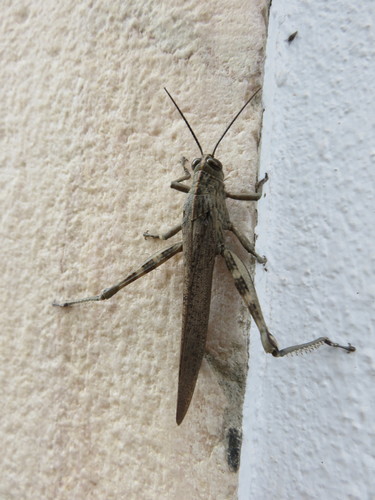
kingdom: Animalia
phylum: Arthropoda
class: Insecta
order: Orthoptera
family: Acrididae
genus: Anacridium
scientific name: Anacridium aegyptium
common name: Egyptian grasshopper
